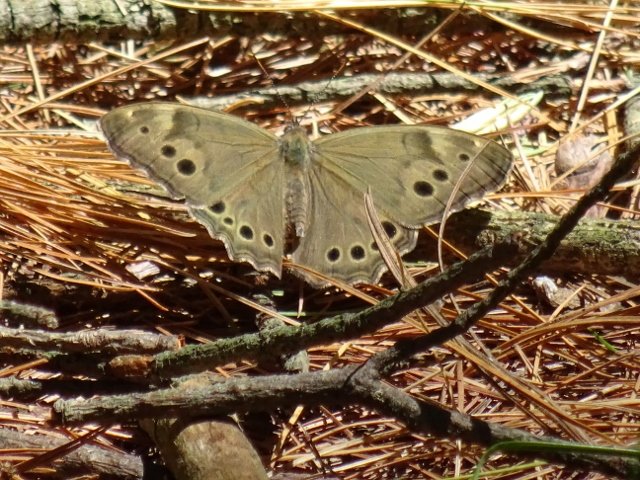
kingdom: Animalia
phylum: Arthropoda
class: Insecta
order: Lepidoptera
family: Nymphalidae
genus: Lethe
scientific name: Lethe anthedon
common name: Northern Pearly-Eye
